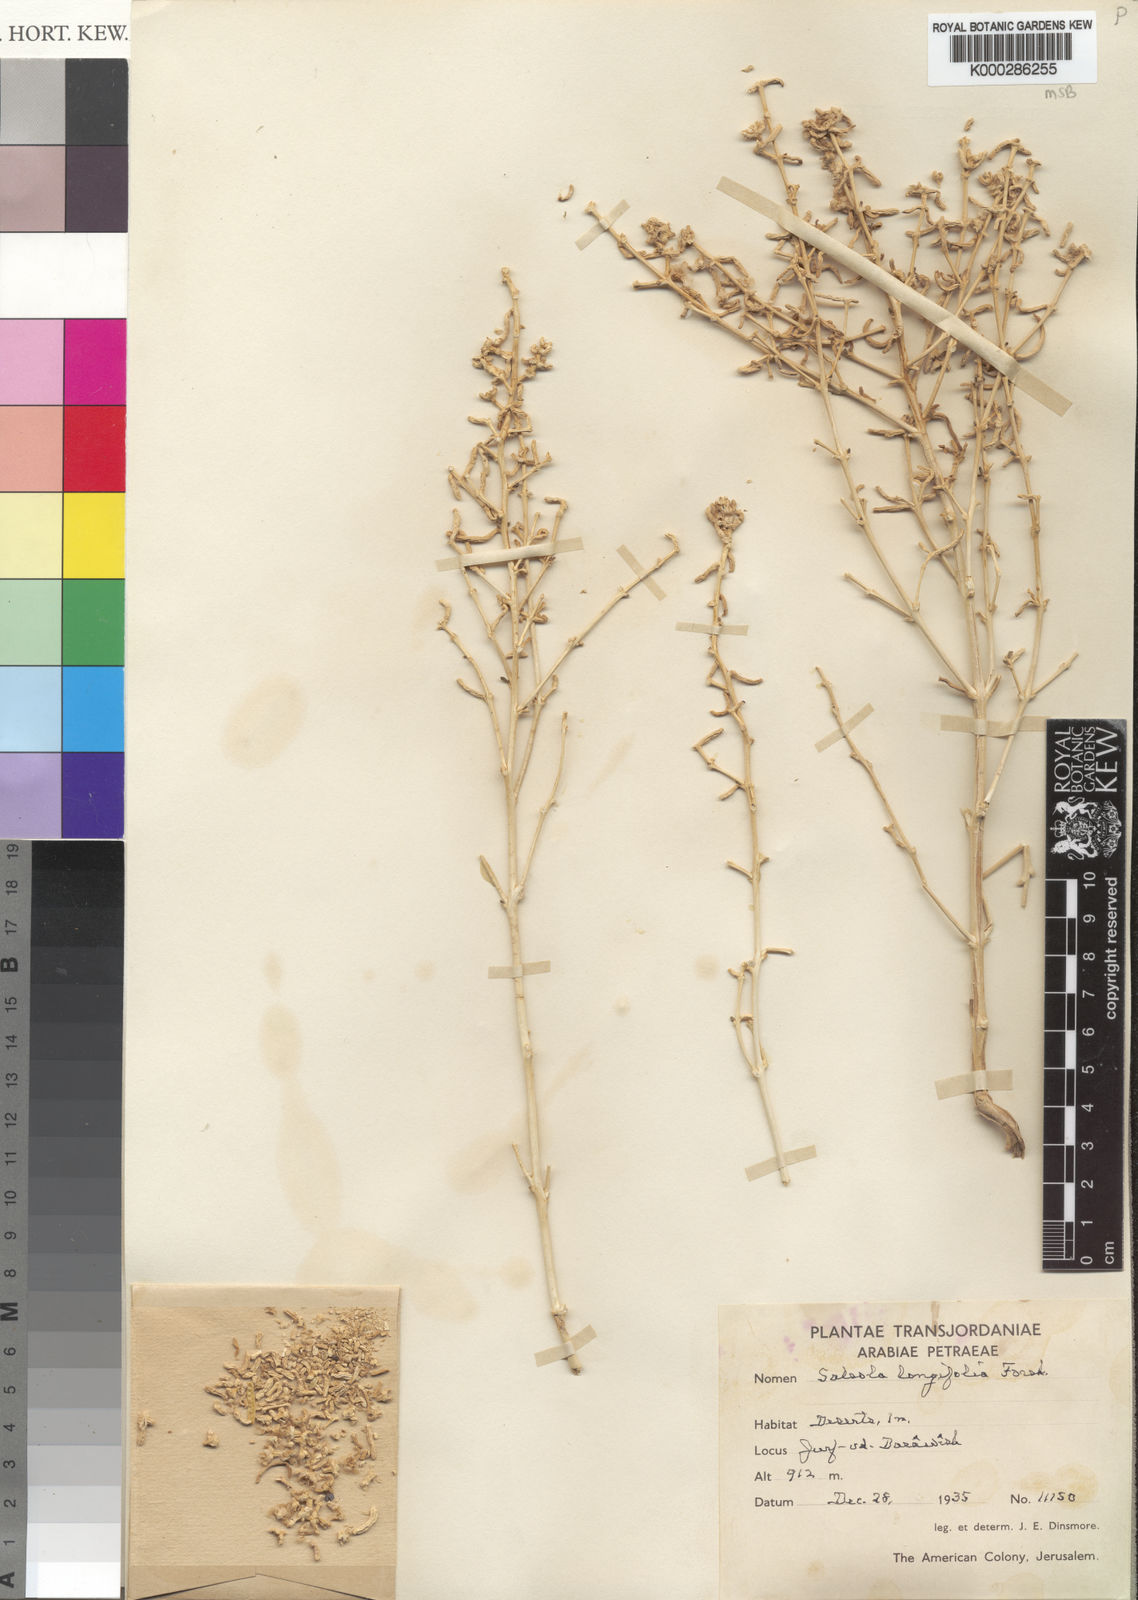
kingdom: Plantae
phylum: Tracheophyta
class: Magnoliopsida
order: Caryophyllales
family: Amaranthaceae
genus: Soda
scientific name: Soda rosmarinus
